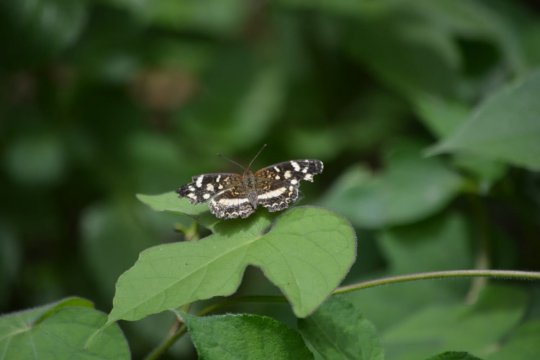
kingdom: Animalia
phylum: Arthropoda
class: Insecta
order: Lepidoptera
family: Nymphalidae
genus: Anthanassa
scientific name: Anthanassa tulcis
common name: Pale-banded Crescent
